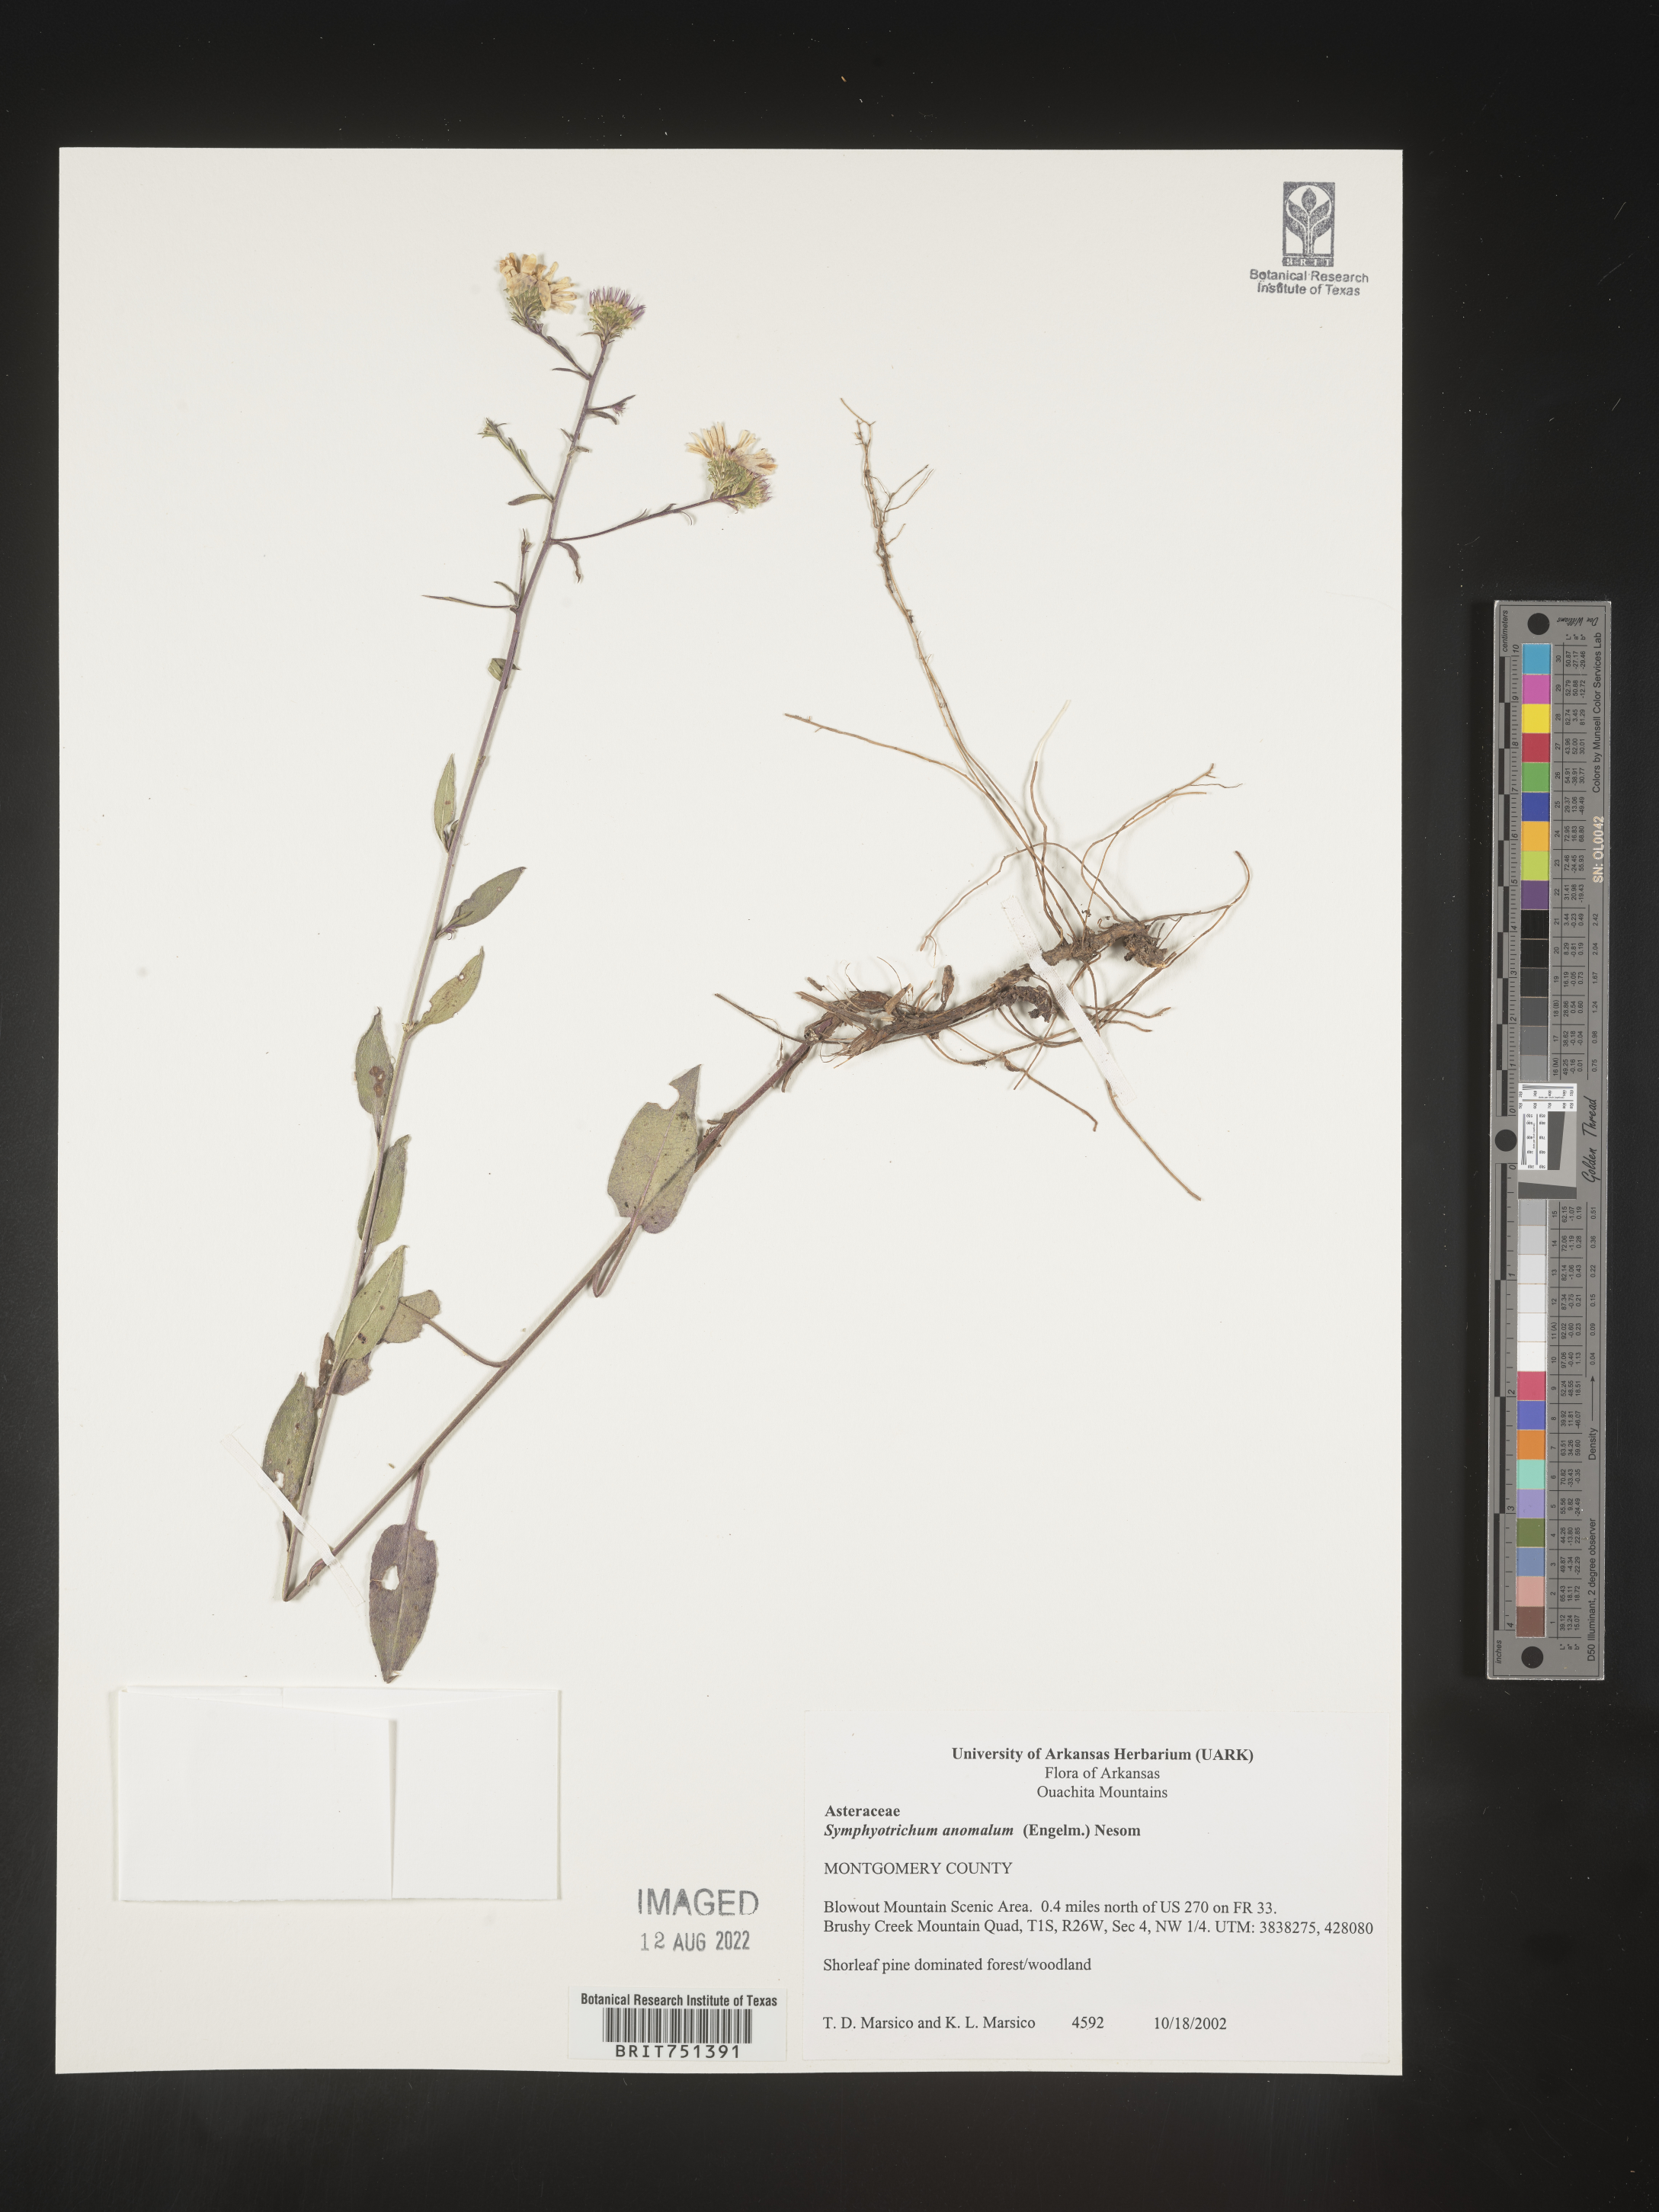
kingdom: Plantae
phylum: Tracheophyta
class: Magnoliopsida
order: Asterales
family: Asteraceae
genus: Symphyotrichum
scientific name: Symphyotrichum anomalum
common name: Many-ray aster
